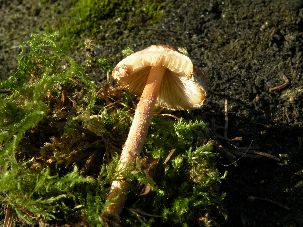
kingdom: Fungi
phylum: Basidiomycota
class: Agaricomycetes
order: Agaricales
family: Agaricaceae
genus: Lepiota
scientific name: Lepiota castanea
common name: kastaniebrun parasolhat
